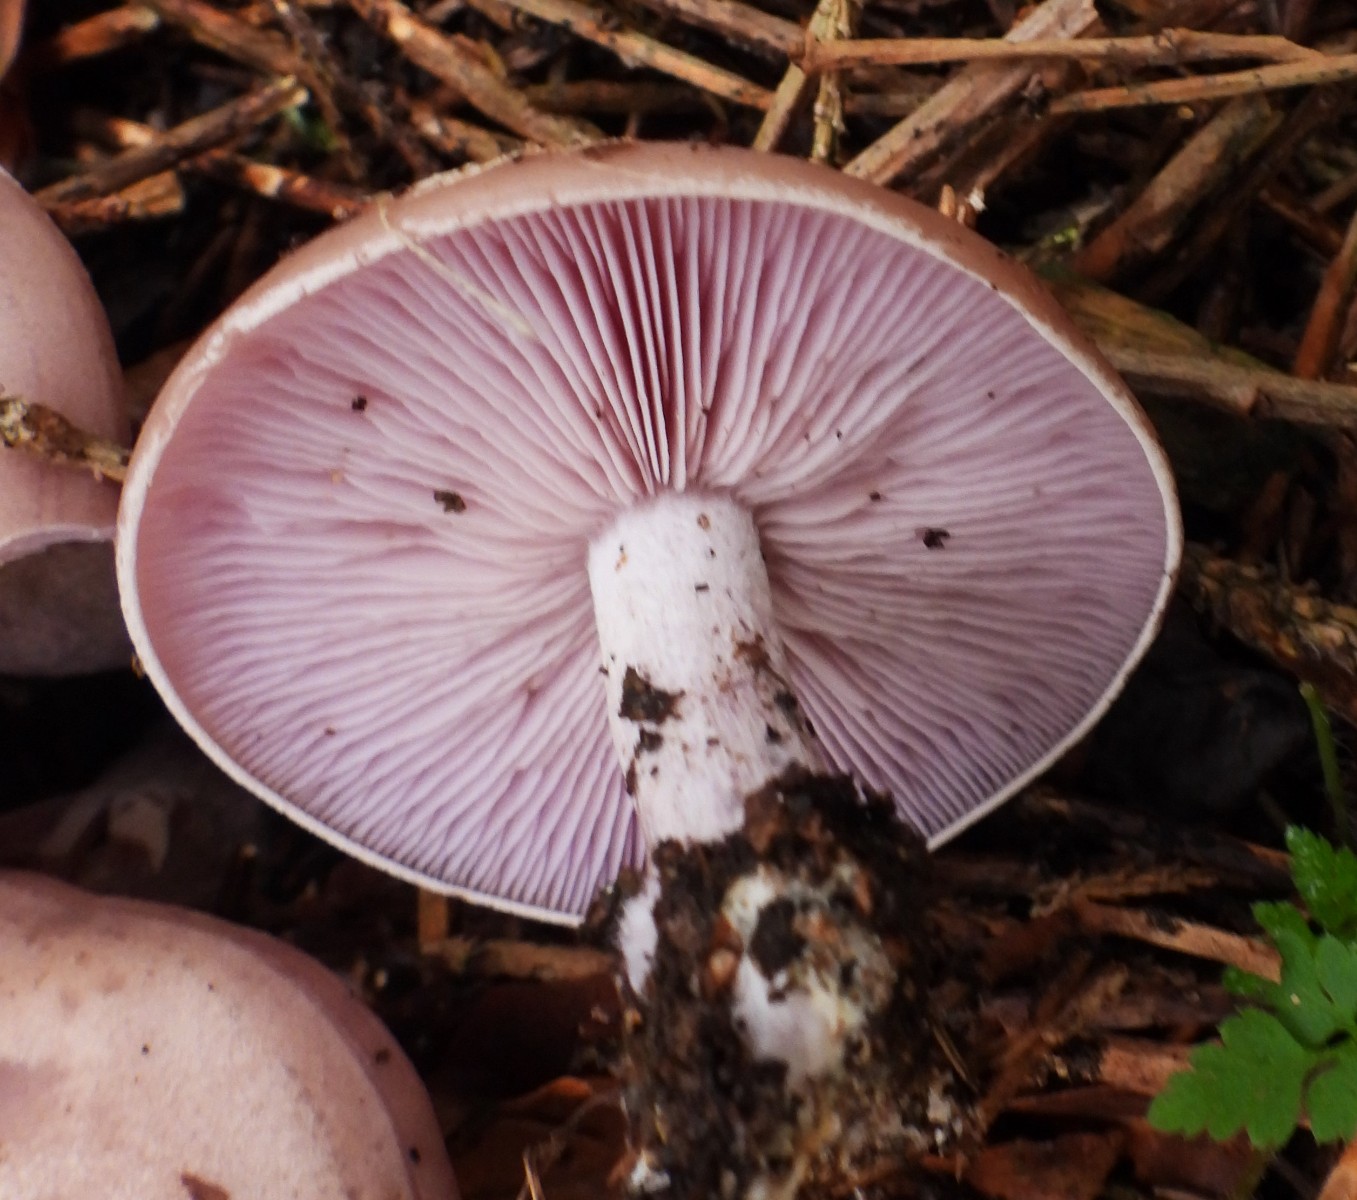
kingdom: Fungi
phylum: Basidiomycota
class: Agaricomycetes
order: Agaricales
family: Tricholomataceae
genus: Lepista
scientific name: Lepista nuda
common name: violet hekseringshat
